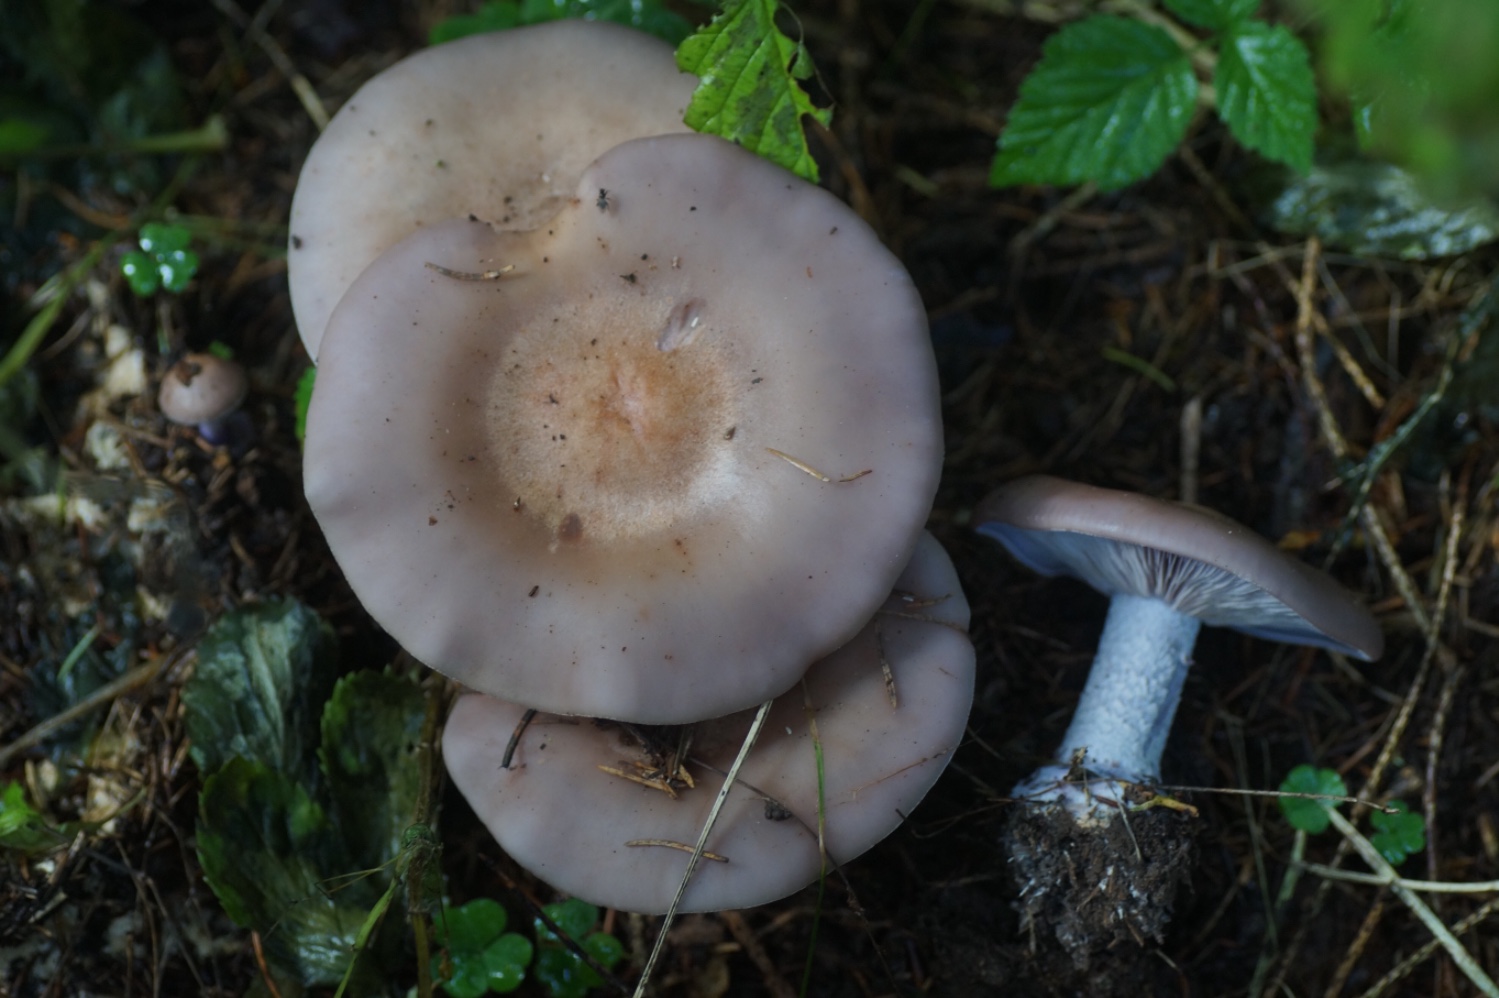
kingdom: Fungi
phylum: Basidiomycota
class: Agaricomycetes
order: Agaricales
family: Tricholomataceae
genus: Lepista
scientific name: Lepista nuda
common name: violet hekseringshat
